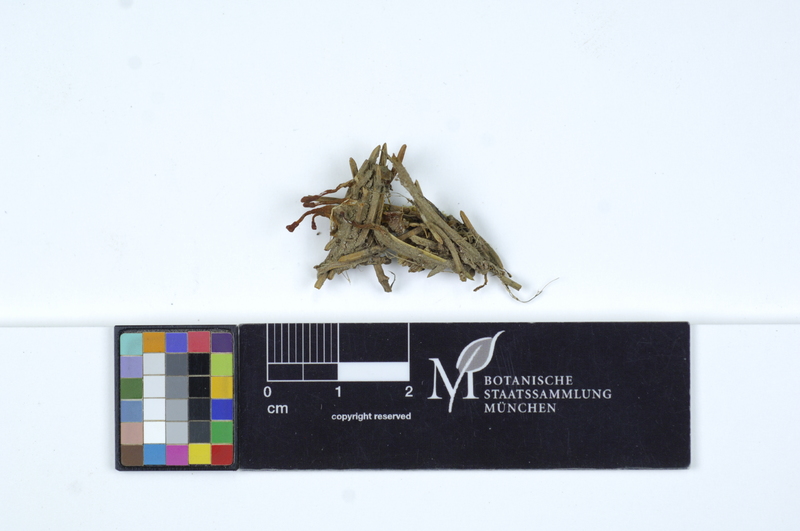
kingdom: Fungi
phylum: Ascomycota
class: Leotiomycetes
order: Helotiales
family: Cenangiaceae
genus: Mitrula
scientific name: Mitrula paludosa
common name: Bog beacon
